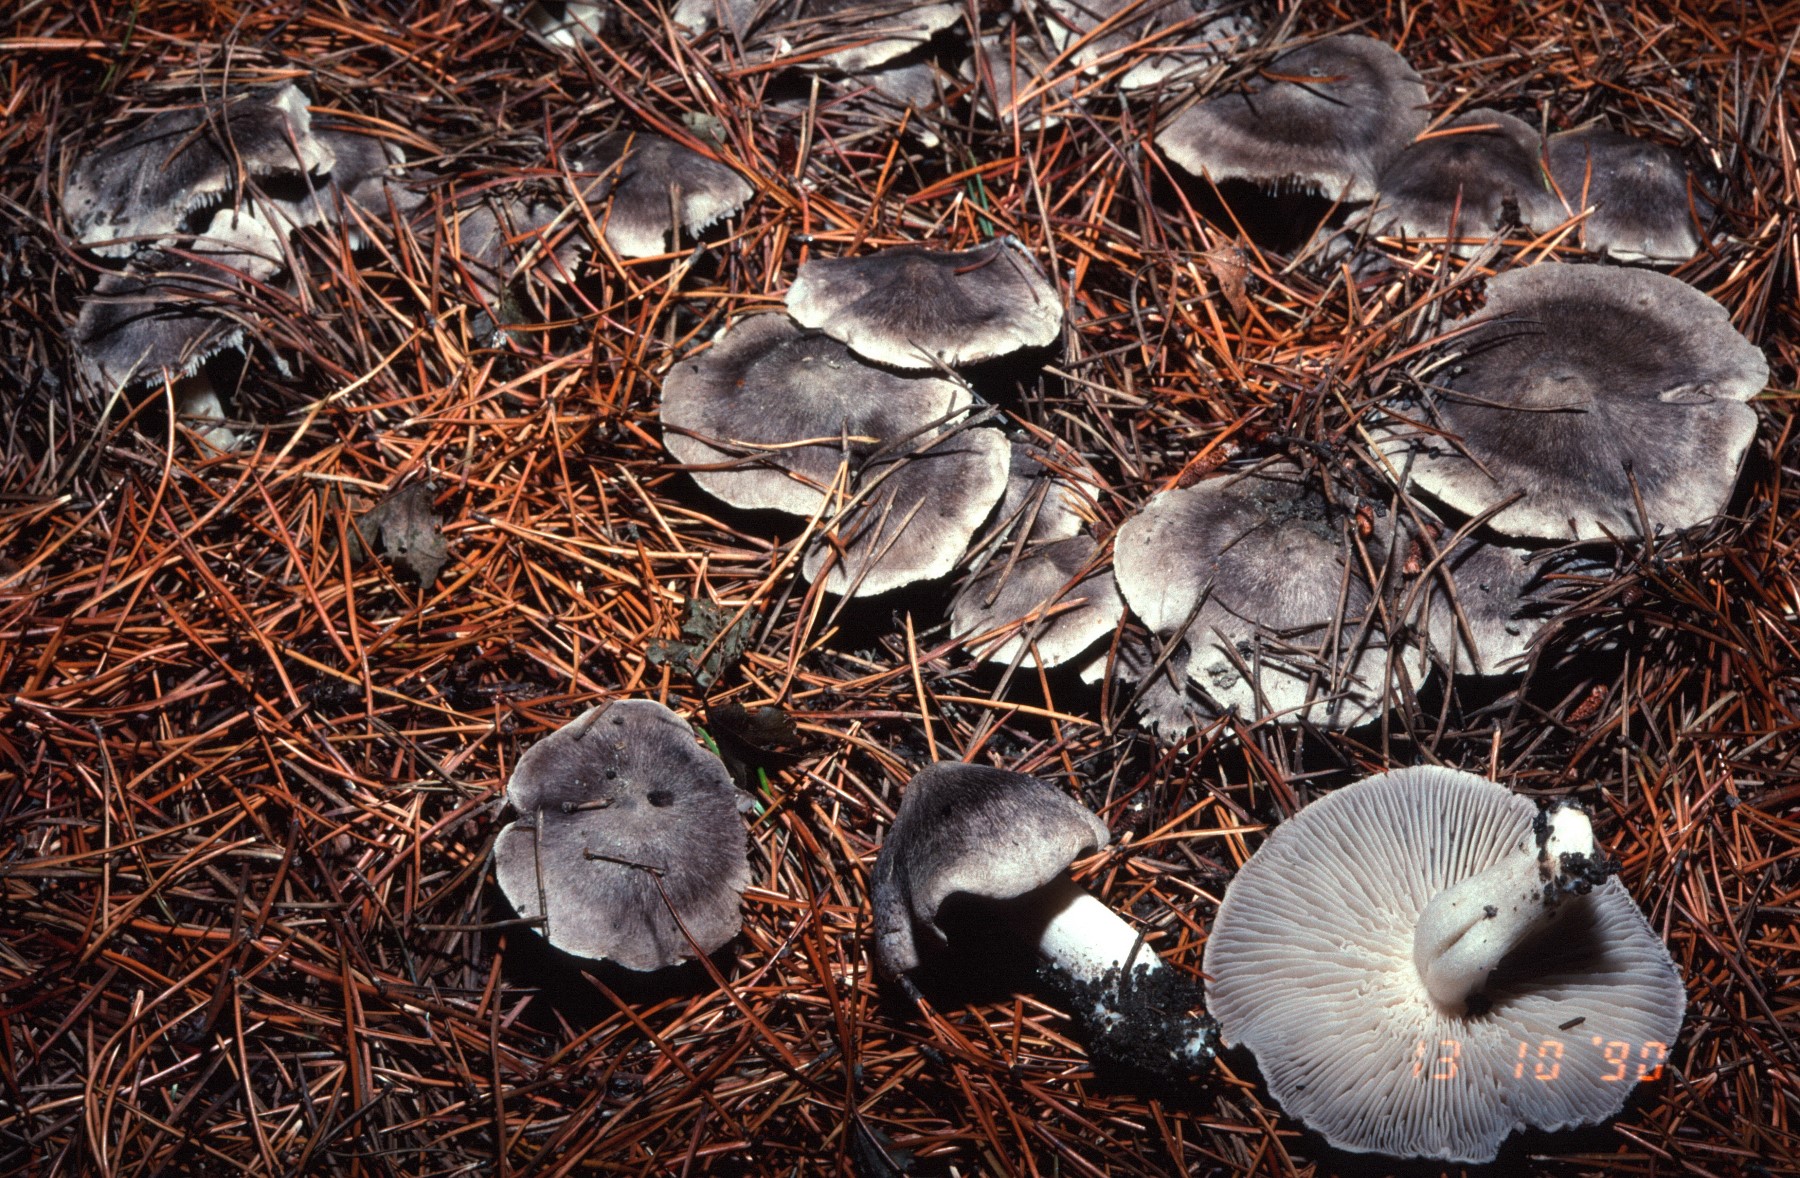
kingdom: Fungi
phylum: Basidiomycota
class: Agaricomycetes
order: Agaricales
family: Tricholomataceae
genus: Tricholoma
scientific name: Tricholoma terreum
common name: jordfarvet ridderhat
